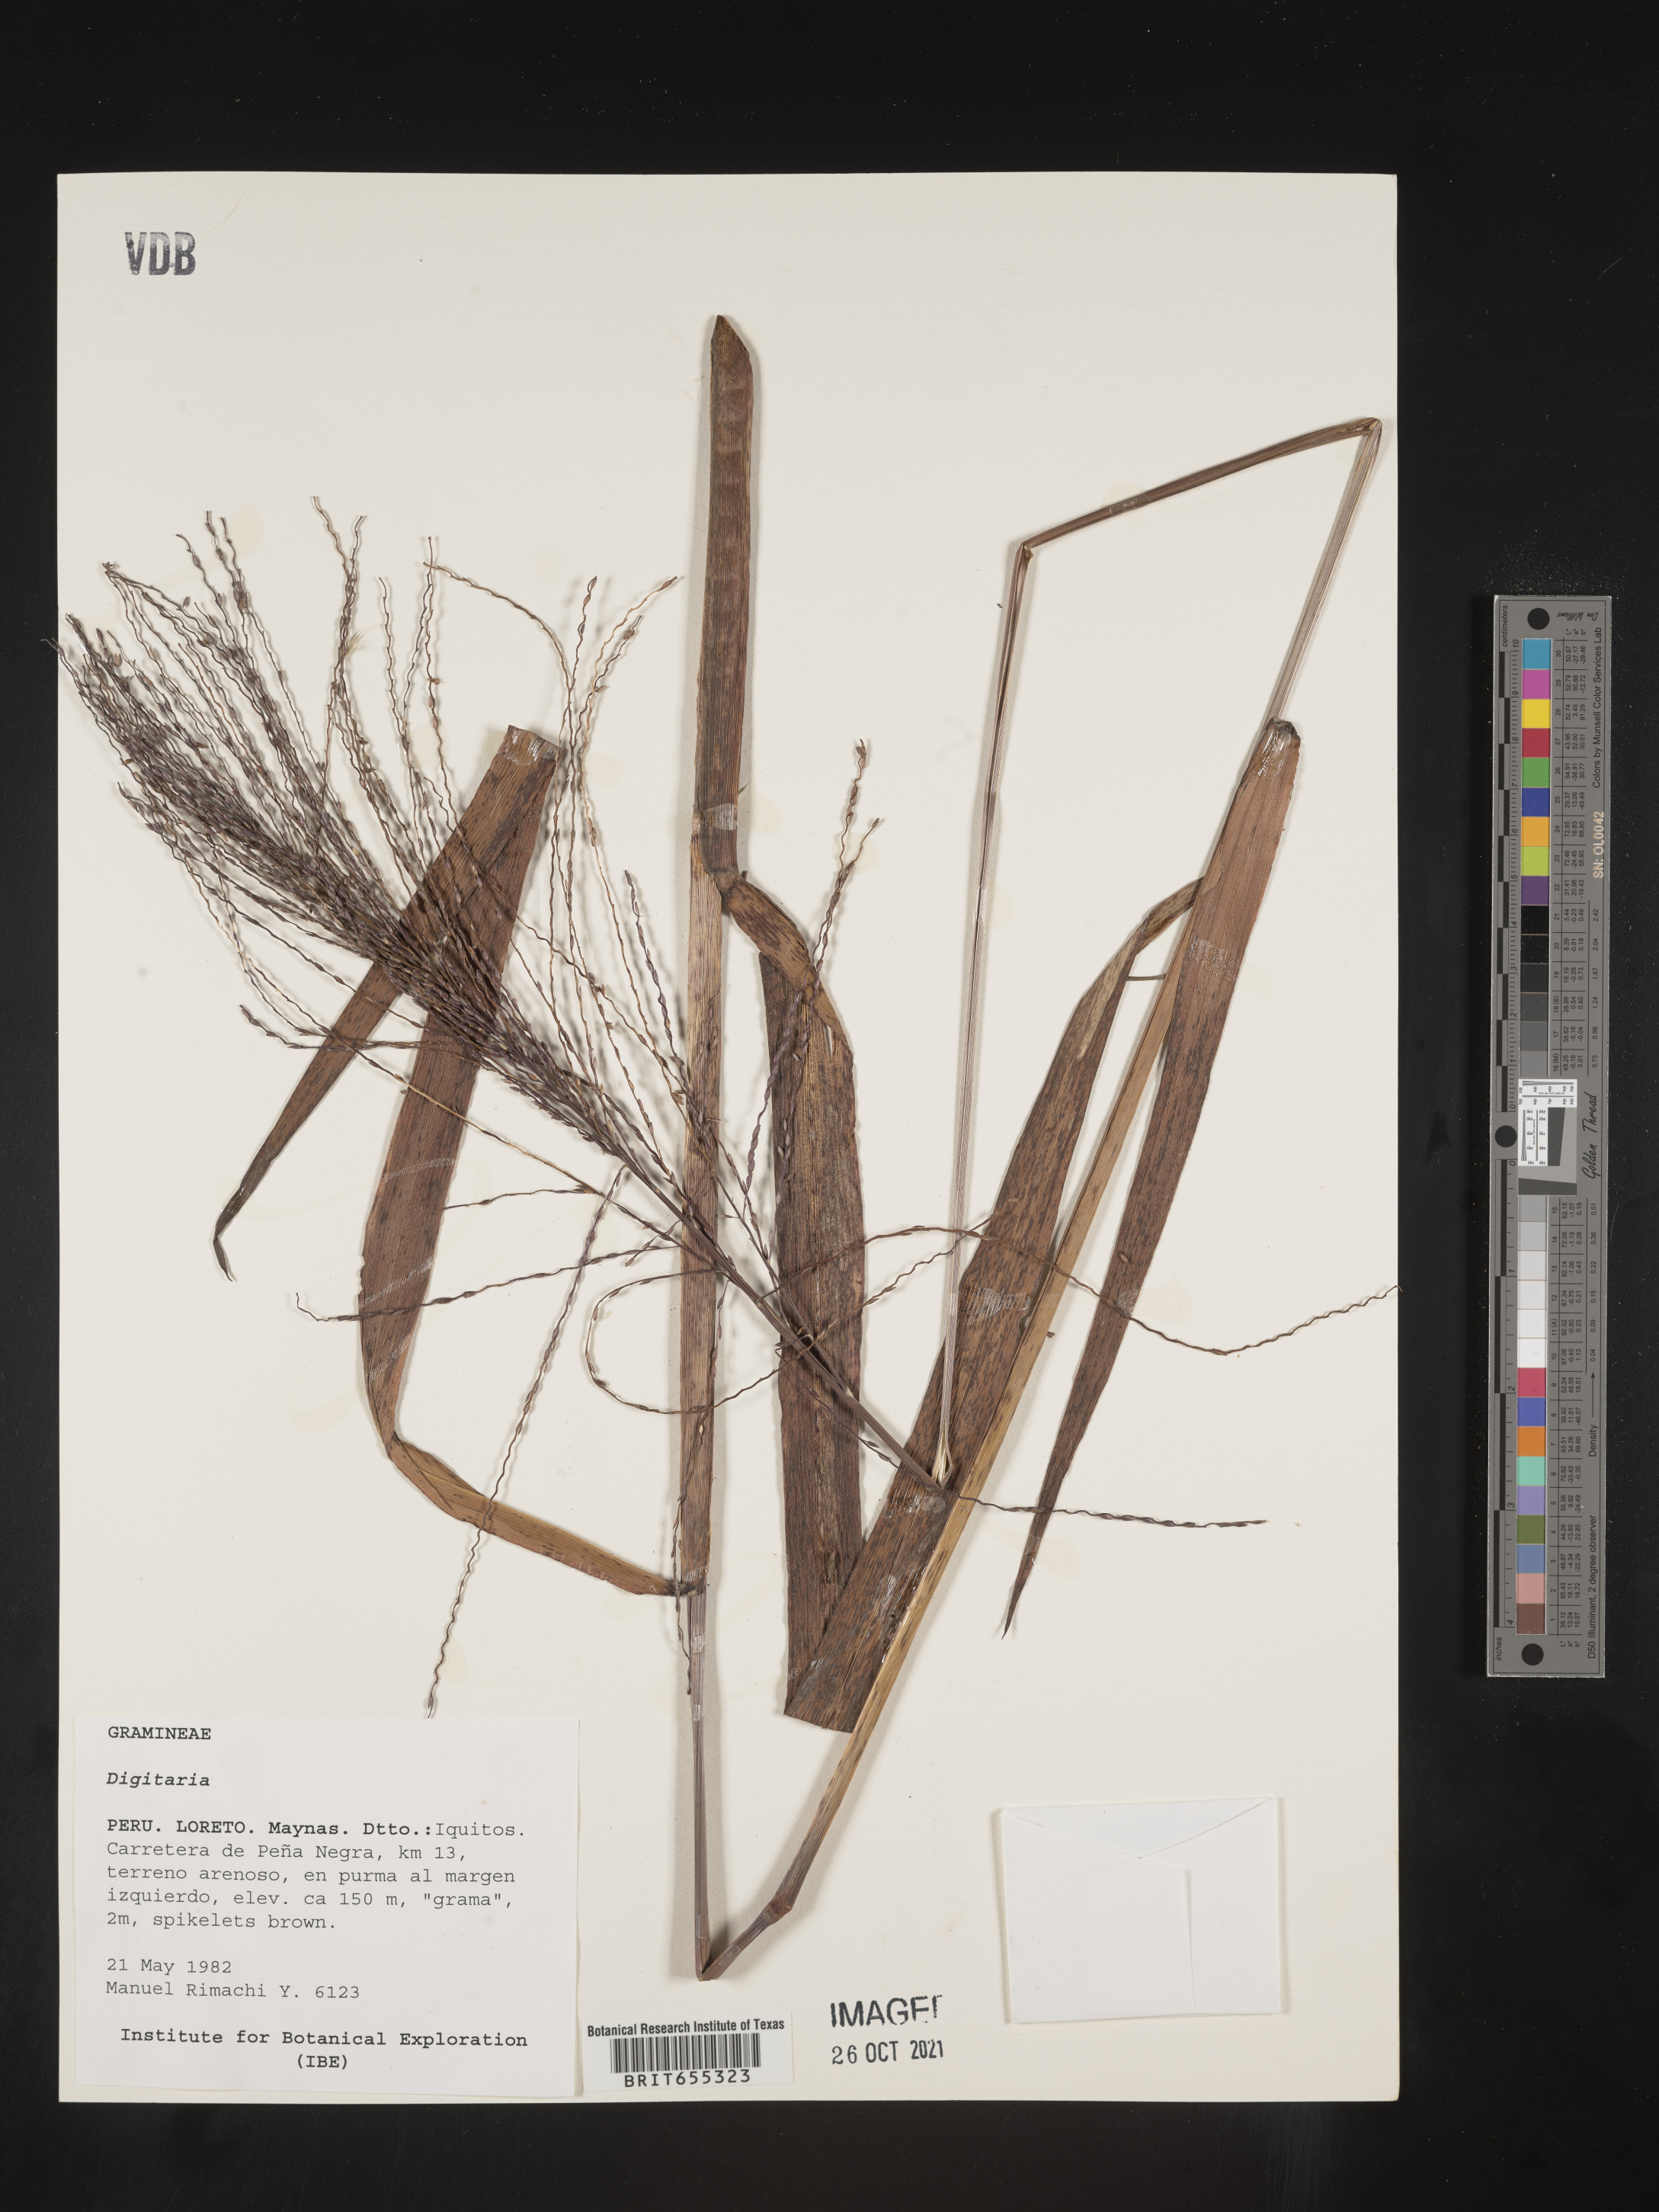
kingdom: Plantae
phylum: Tracheophyta
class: Liliopsida
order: Poales
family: Poaceae
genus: Digitaria
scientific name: Digitaria
